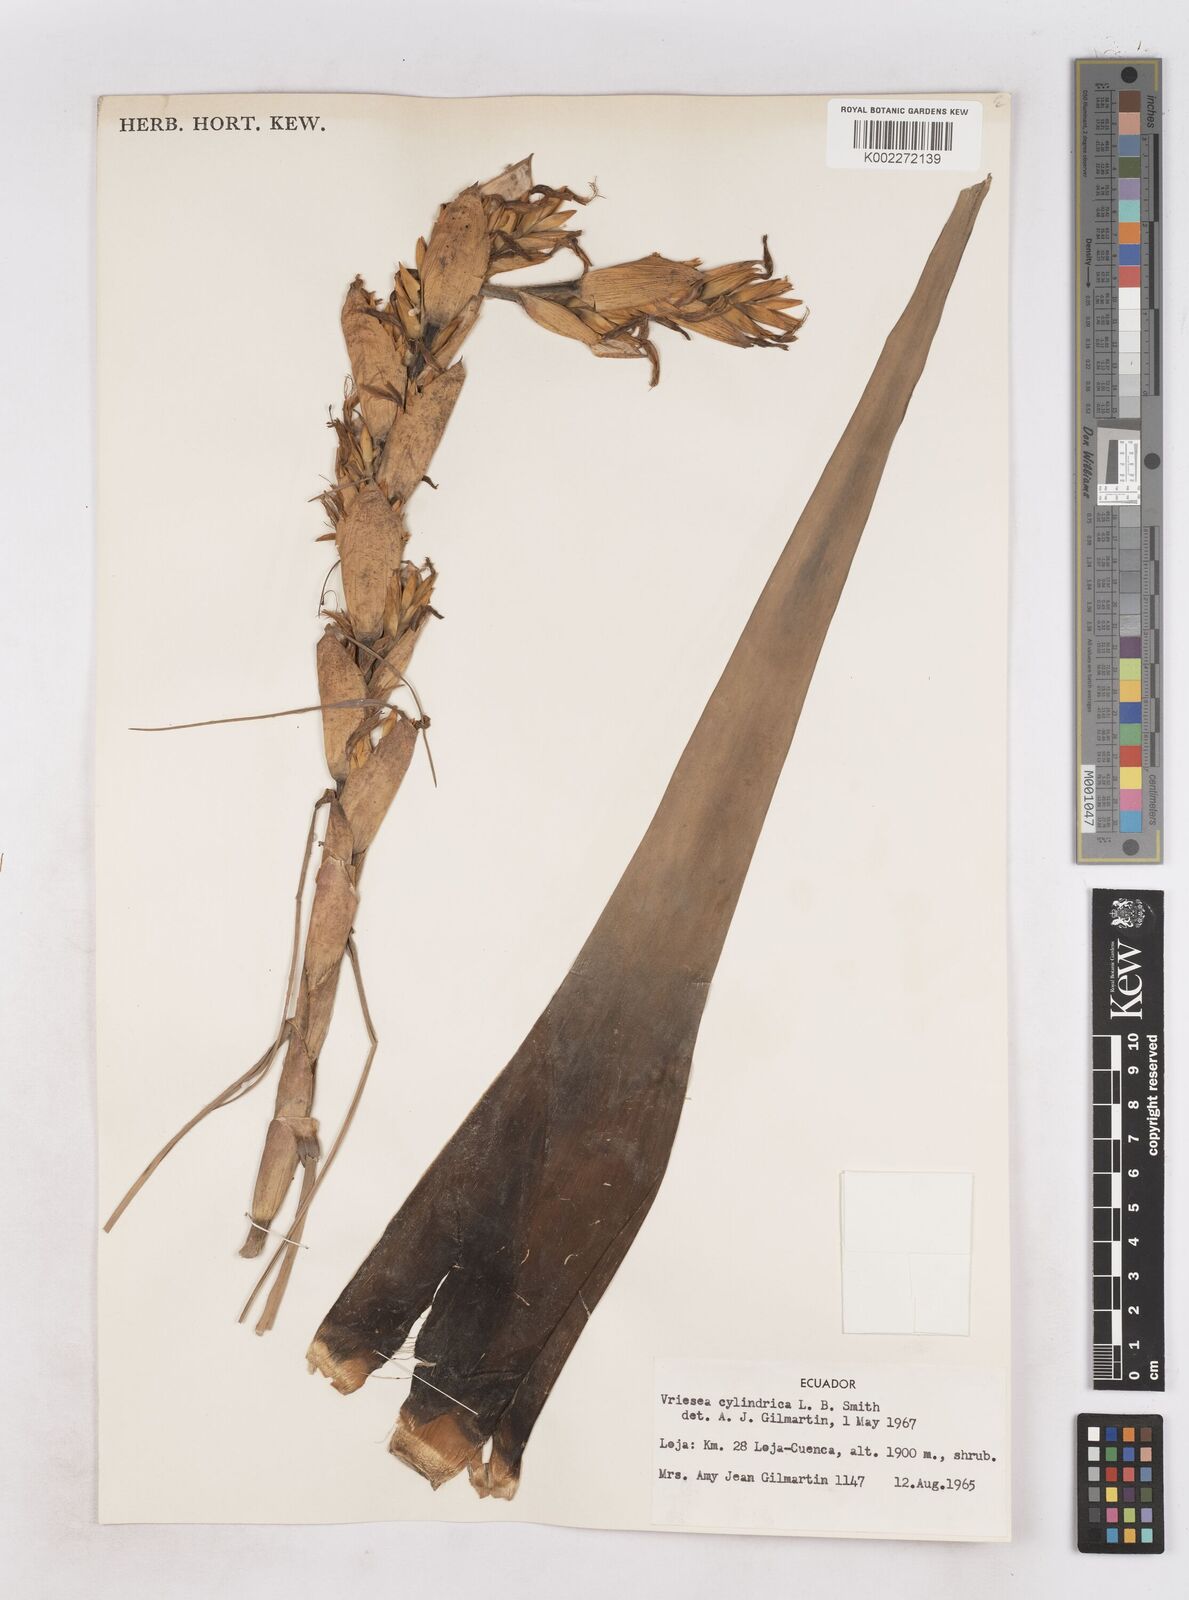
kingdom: Plantae
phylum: Tracheophyta
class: Liliopsida
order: Poales
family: Bromeliaceae
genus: Vriesea
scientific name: Vriesea cylindrica
